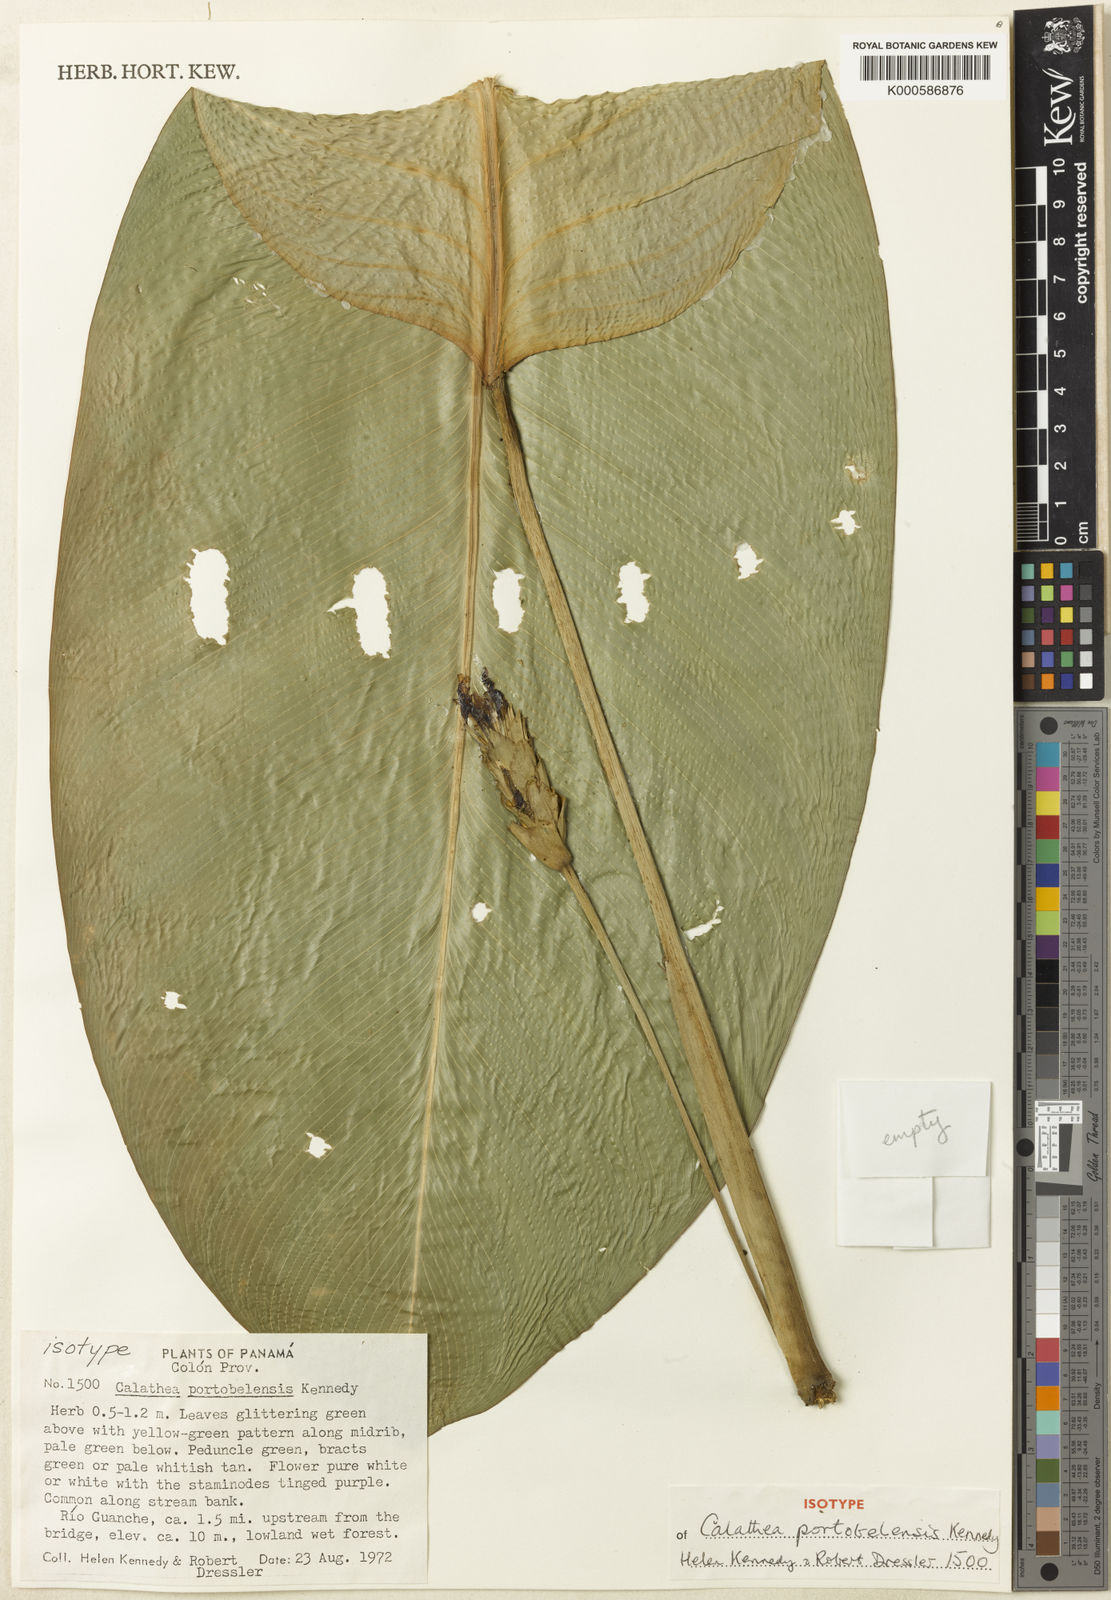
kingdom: Plantae
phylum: Tracheophyta
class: Liliopsida
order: Zingiberales
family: Marantaceae
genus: Goeppertia
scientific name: Goeppertia portobelensis
